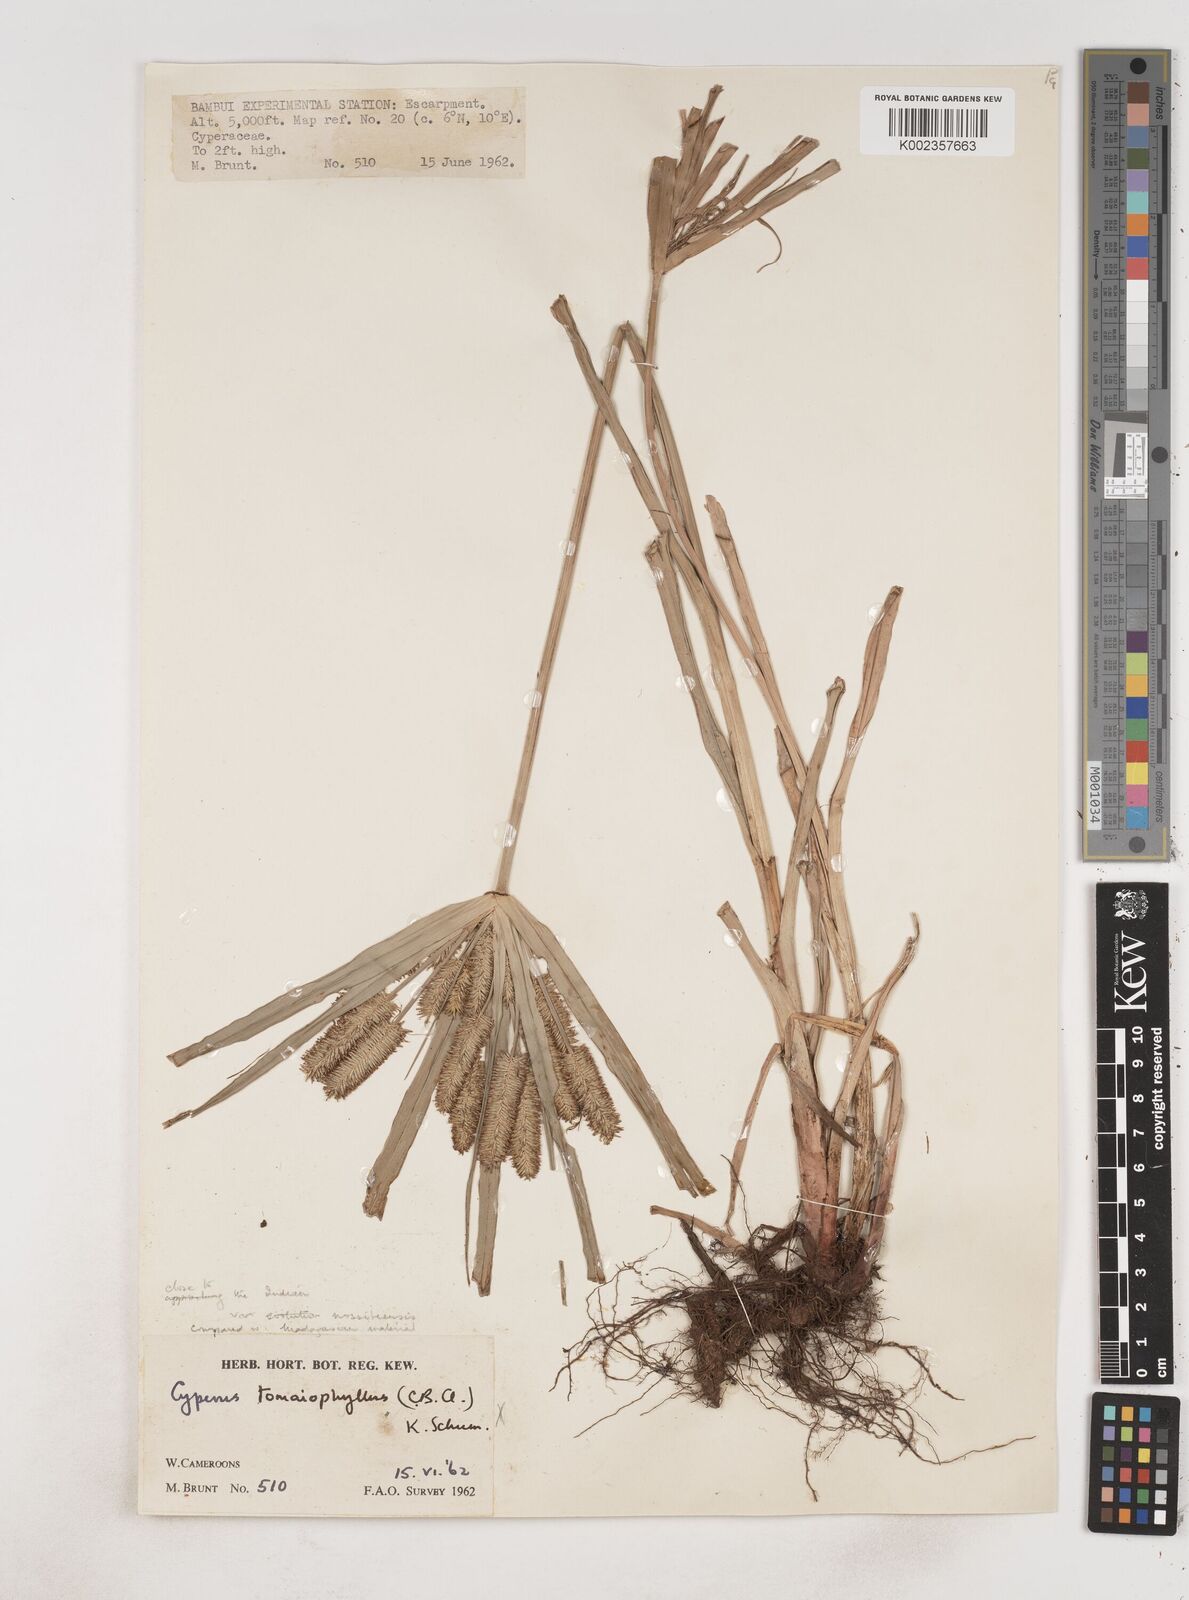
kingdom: Plantae
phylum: Tracheophyta
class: Liliopsida
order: Poales
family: Cyperaceae
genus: Cyperus
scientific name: Cyperus cyperoides
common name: Pacific island flat sedge
